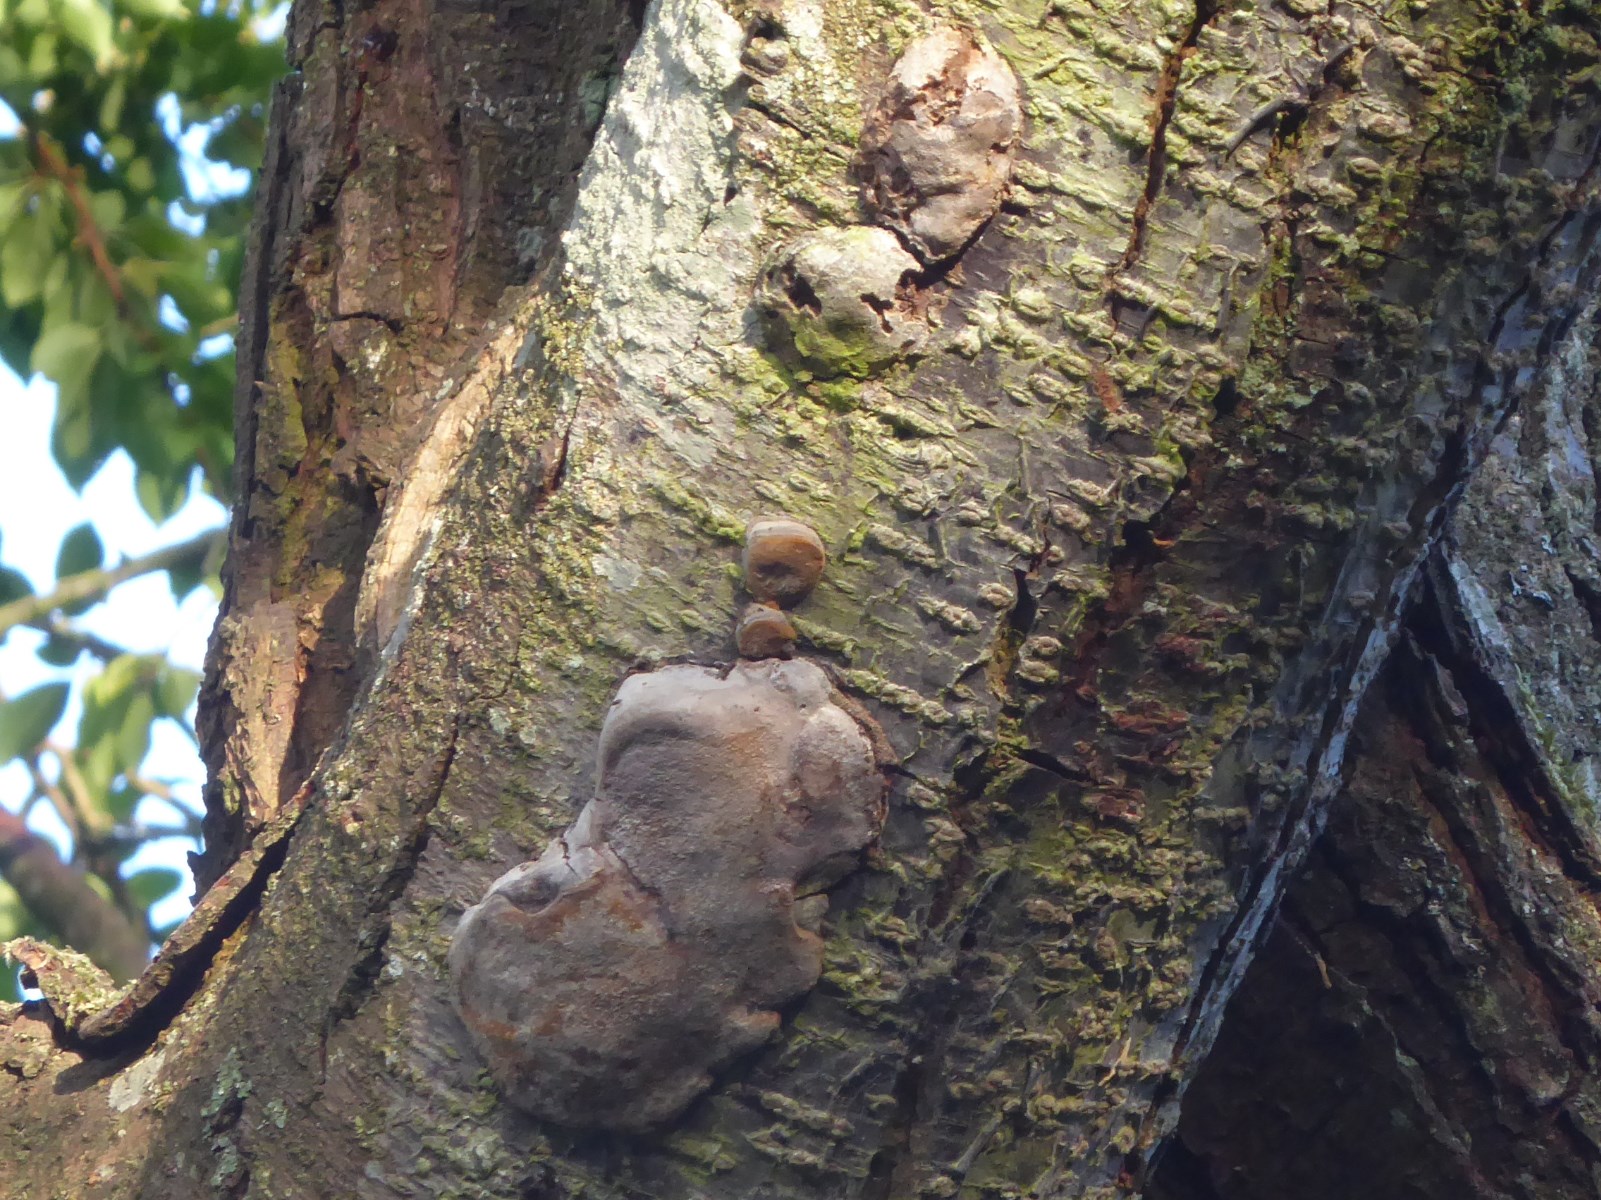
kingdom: Fungi
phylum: Basidiomycota
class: Agaricomycetes
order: Hymenochaetales
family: Hymenochaetaceae
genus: Phellinus
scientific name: Phellinus pomaceus
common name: blomme-ildporesvamp
